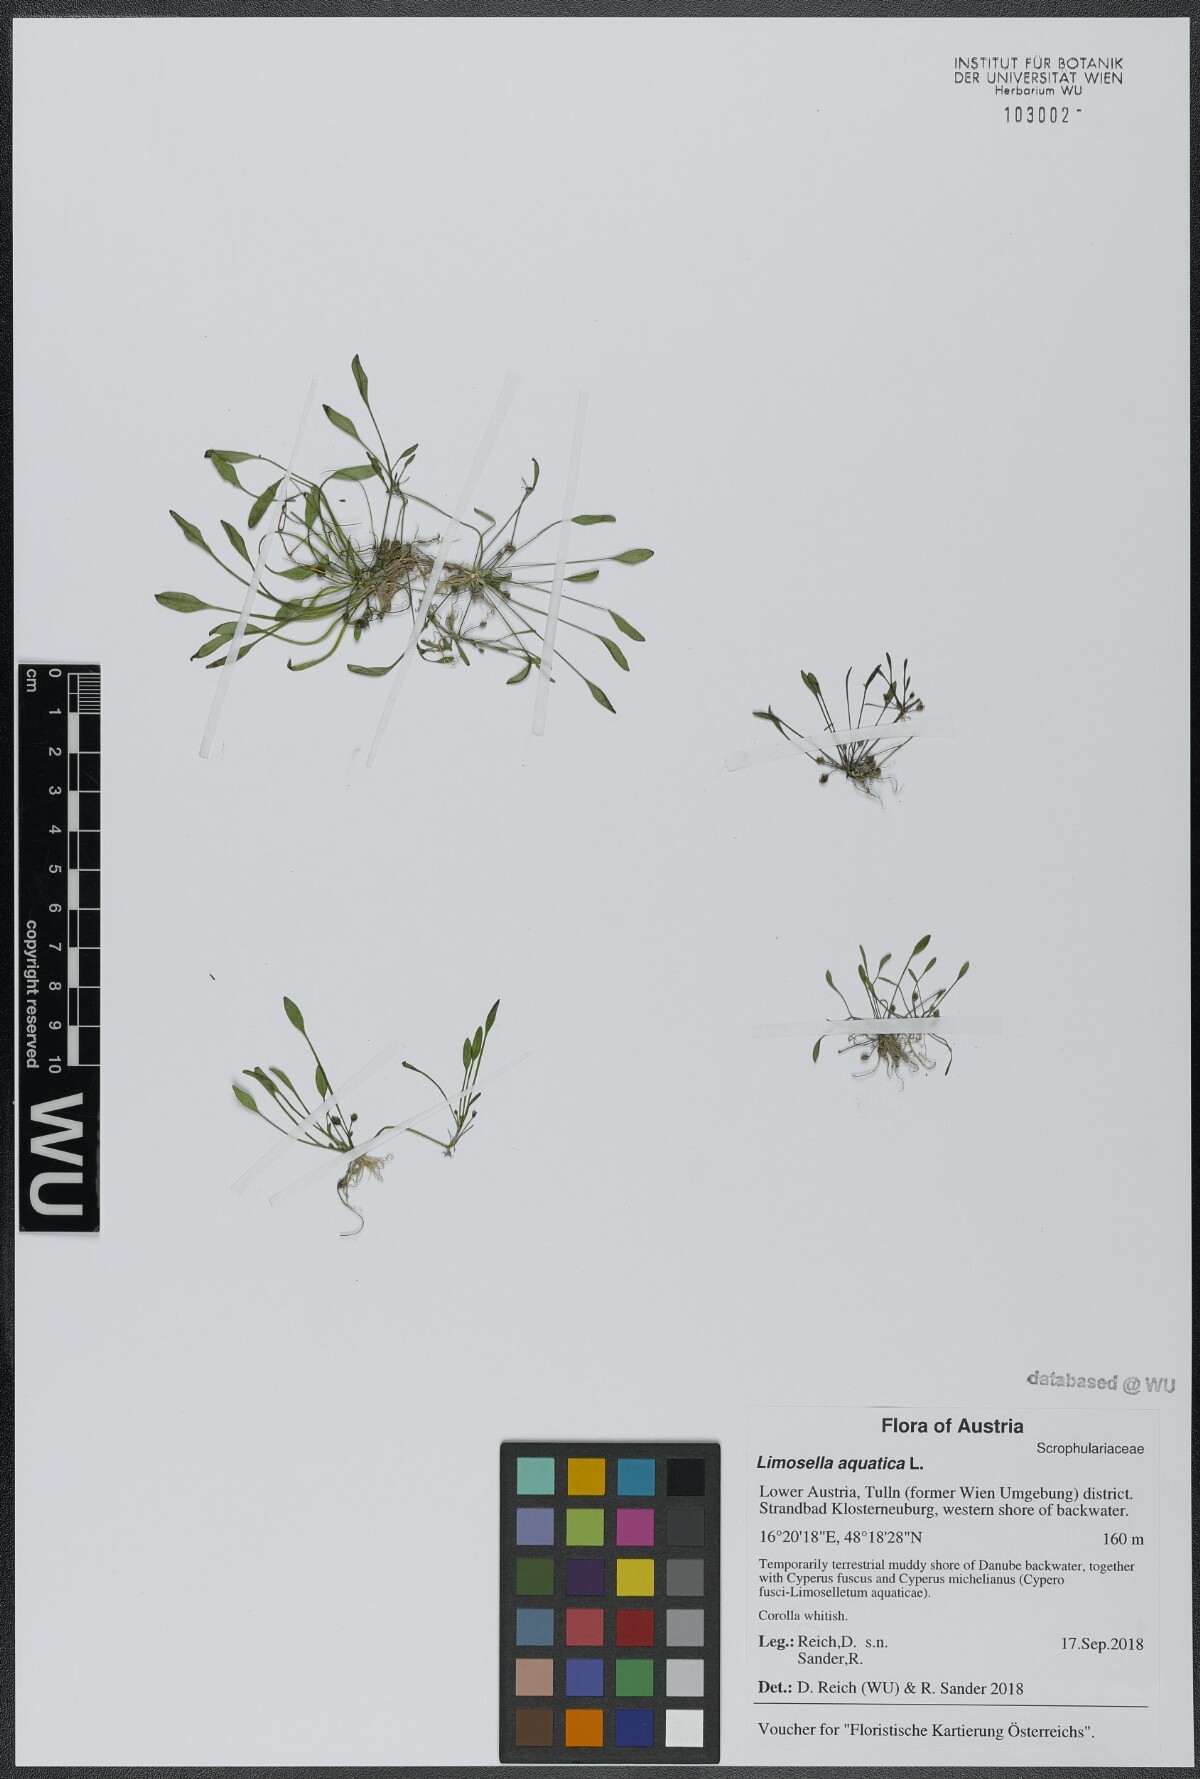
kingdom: Plantae
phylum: Tracheophyta
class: Magnoliopsida
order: Lamiales
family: Scrophulariaceae
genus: Limosella
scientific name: Limosella aquatica
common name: Mudwort
